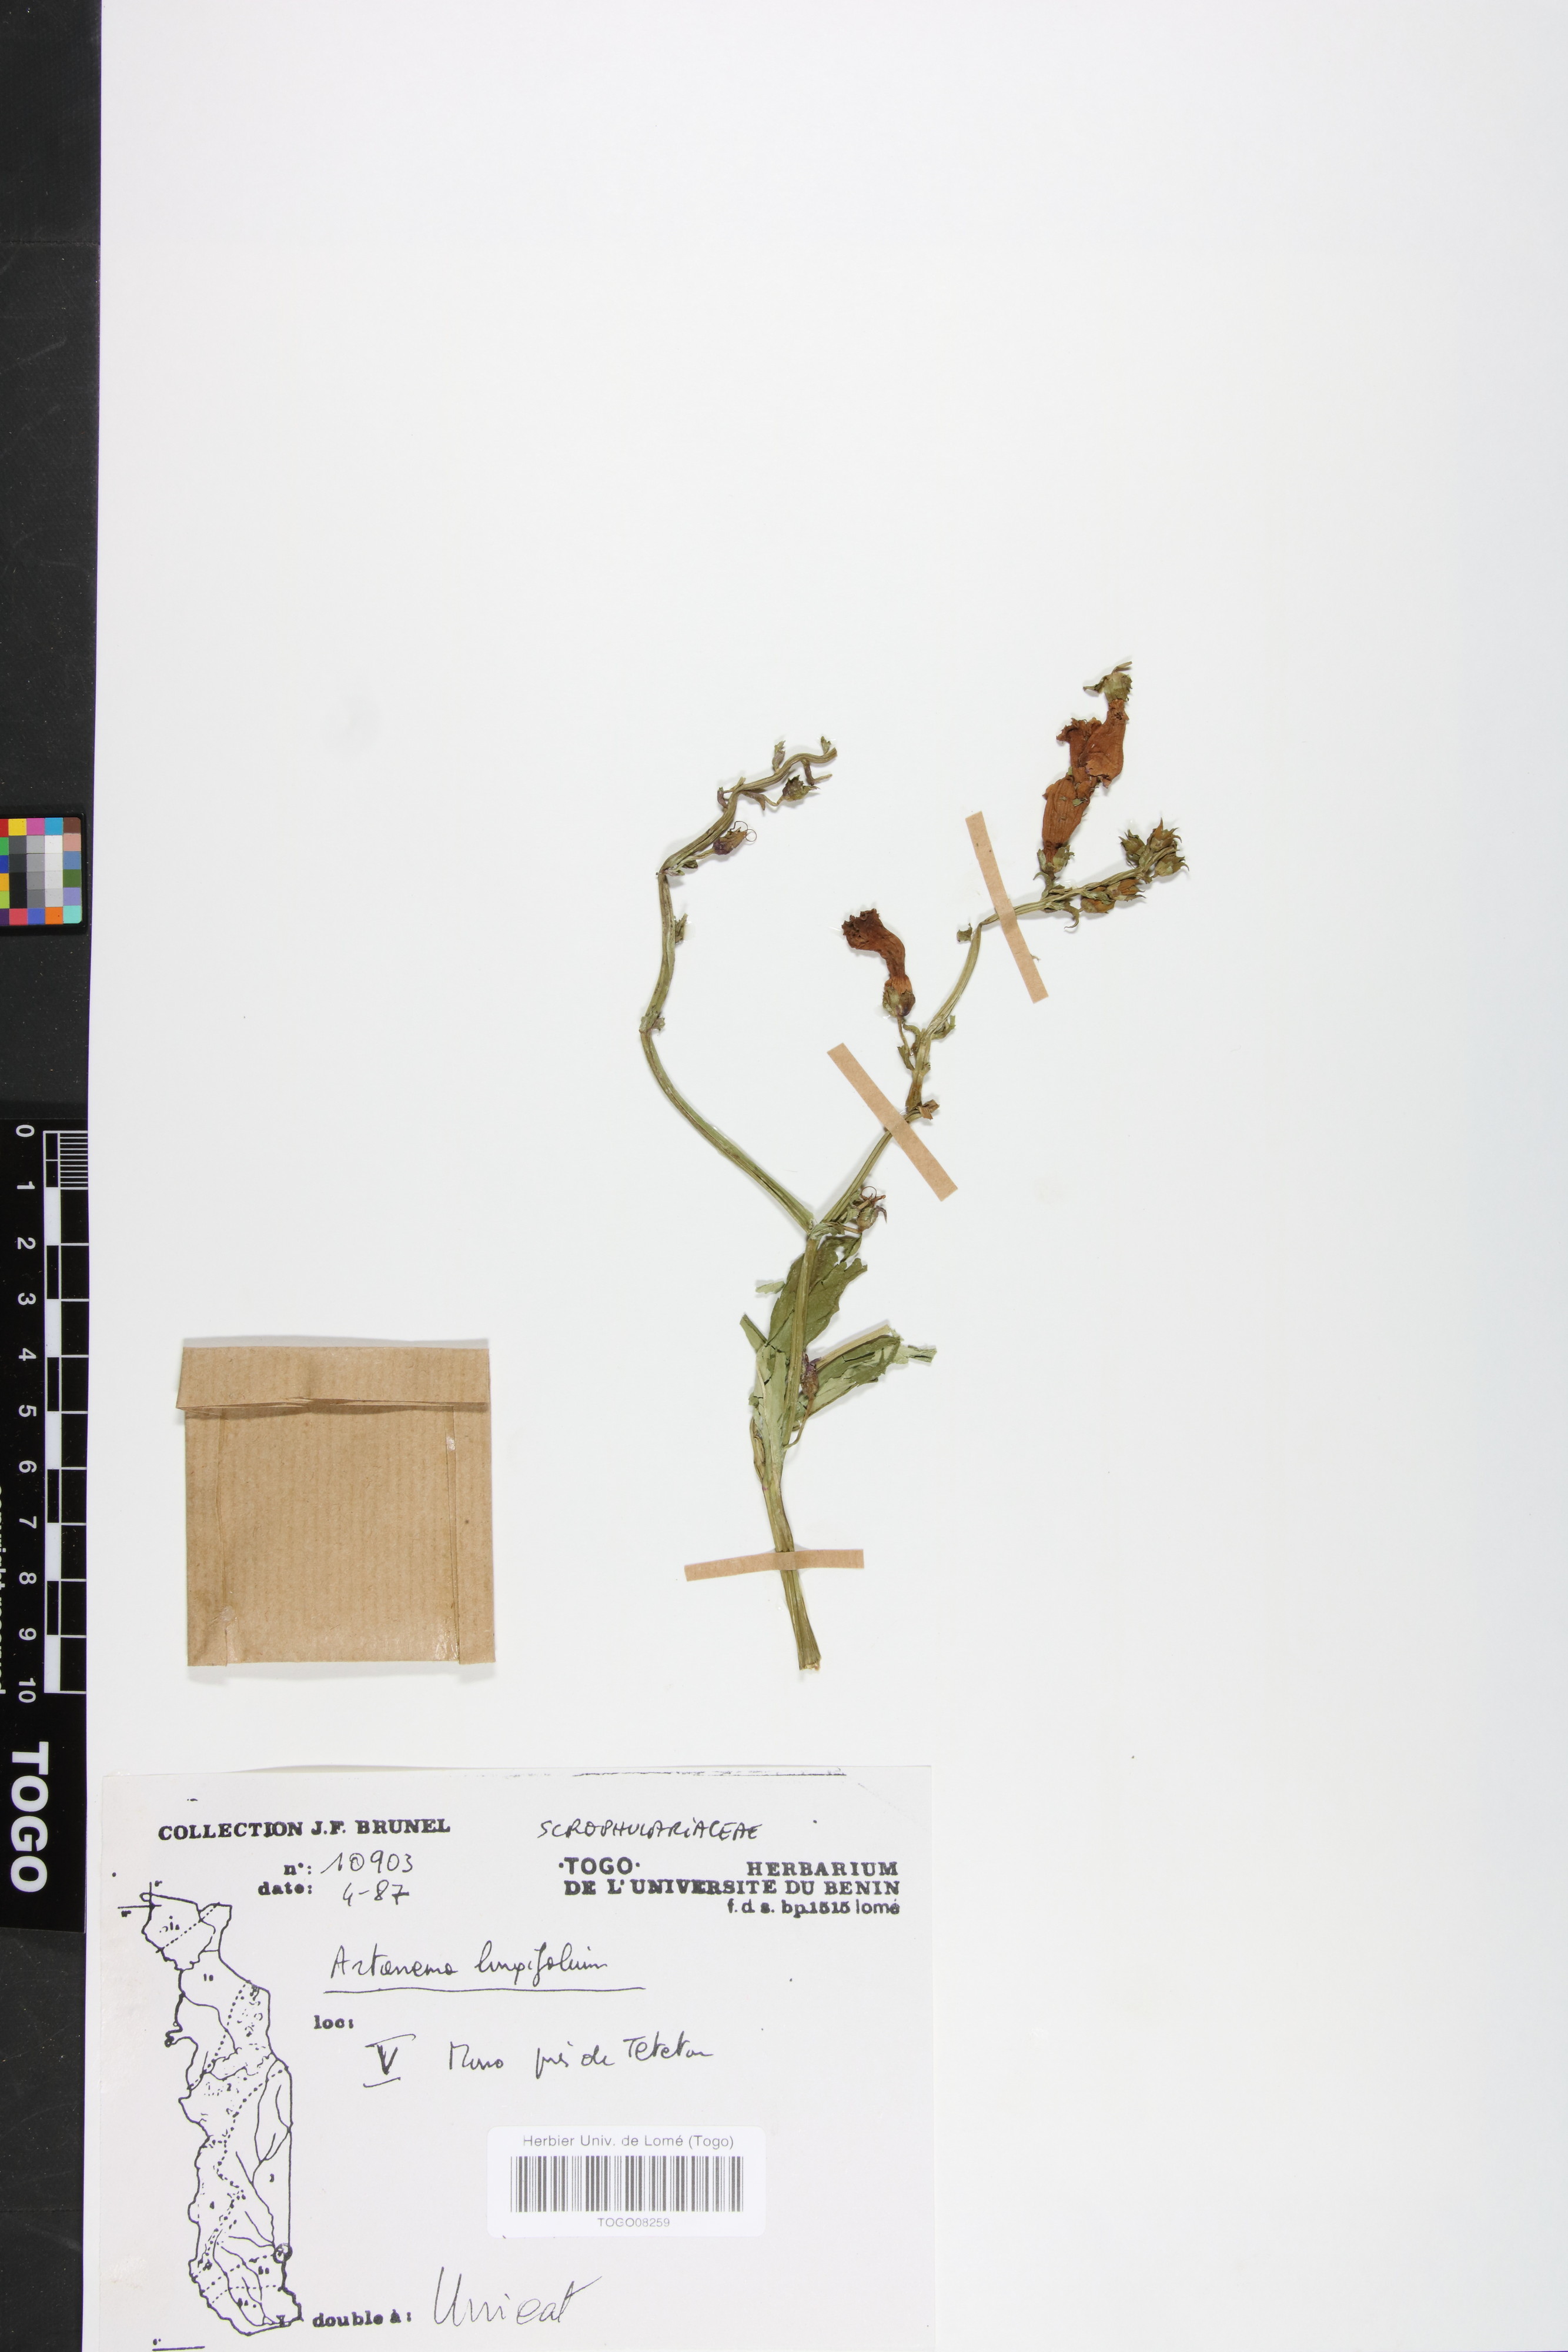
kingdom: Plantae
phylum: Tracheophyta
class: Magnoliopsida
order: Lamiales
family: Linderniaceae
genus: Artanema
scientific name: Artanema longifolium
